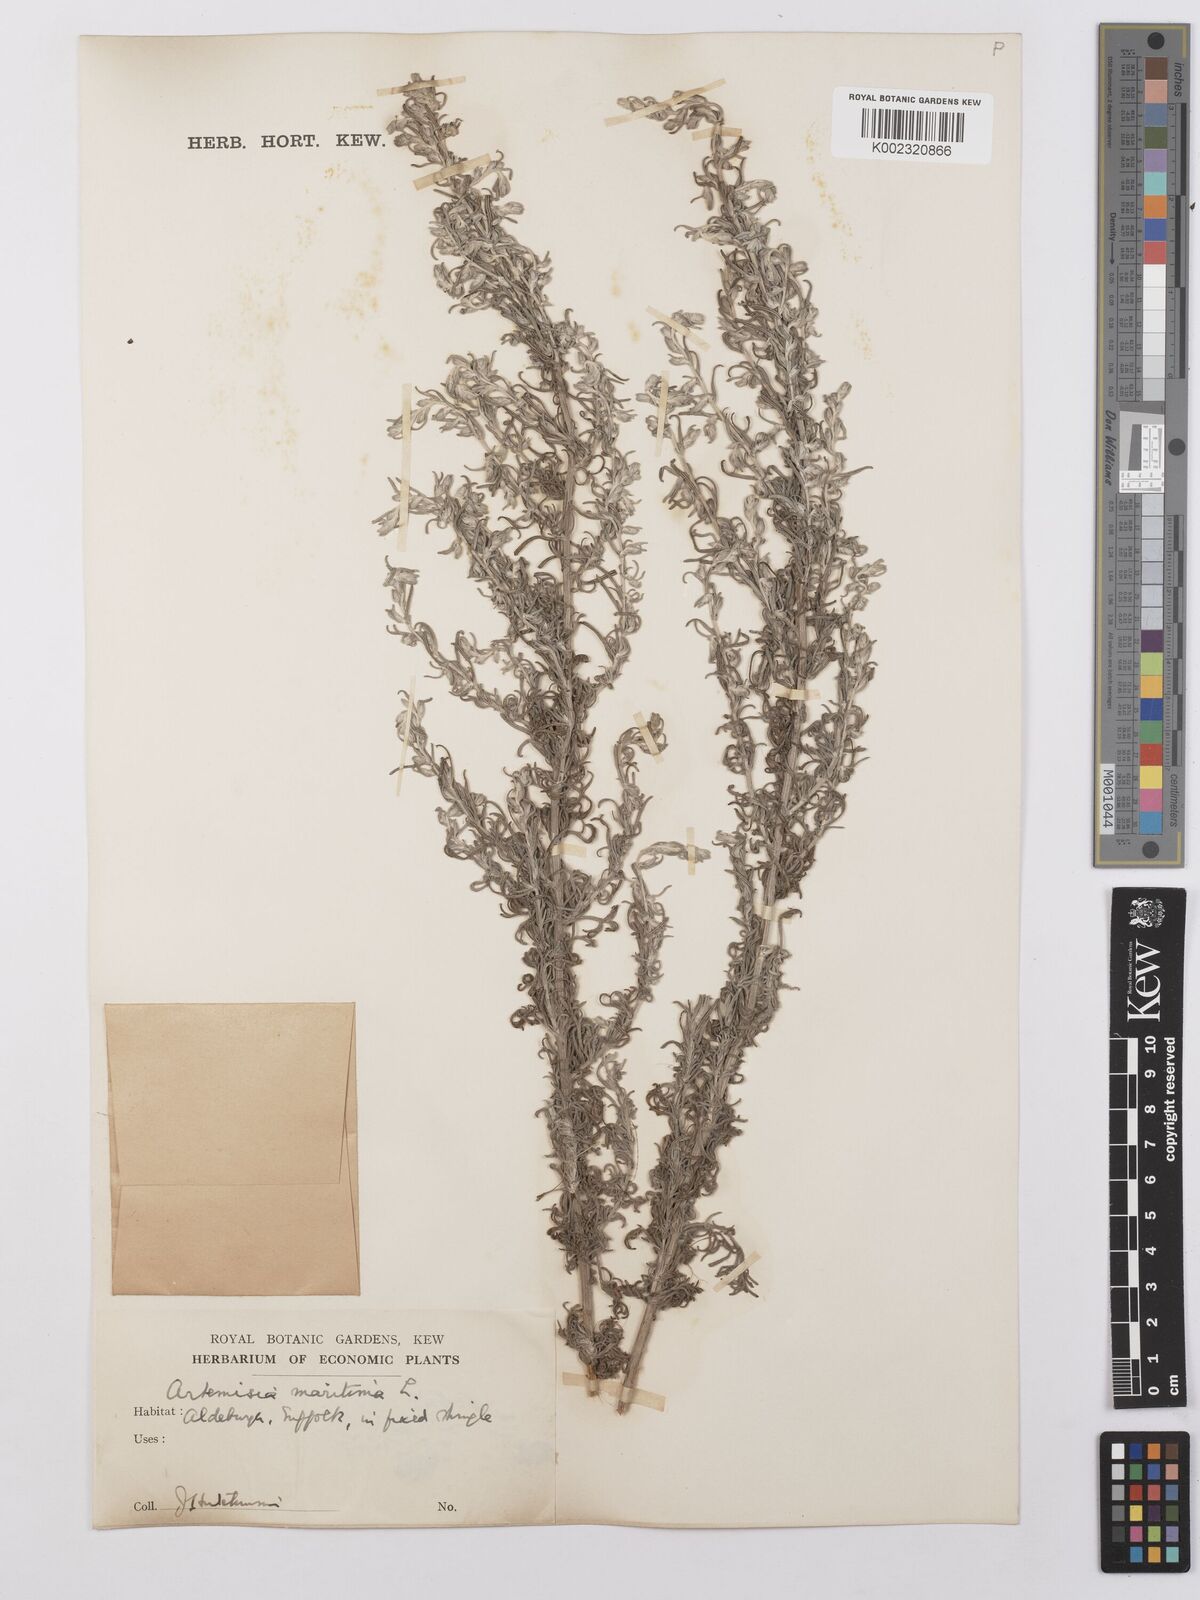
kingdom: Plantae
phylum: Tracheophyta
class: Magnoliopsida
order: Asterales
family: Asteraceae
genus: Artemisia
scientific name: Artemisia maritima
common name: Wormseed
